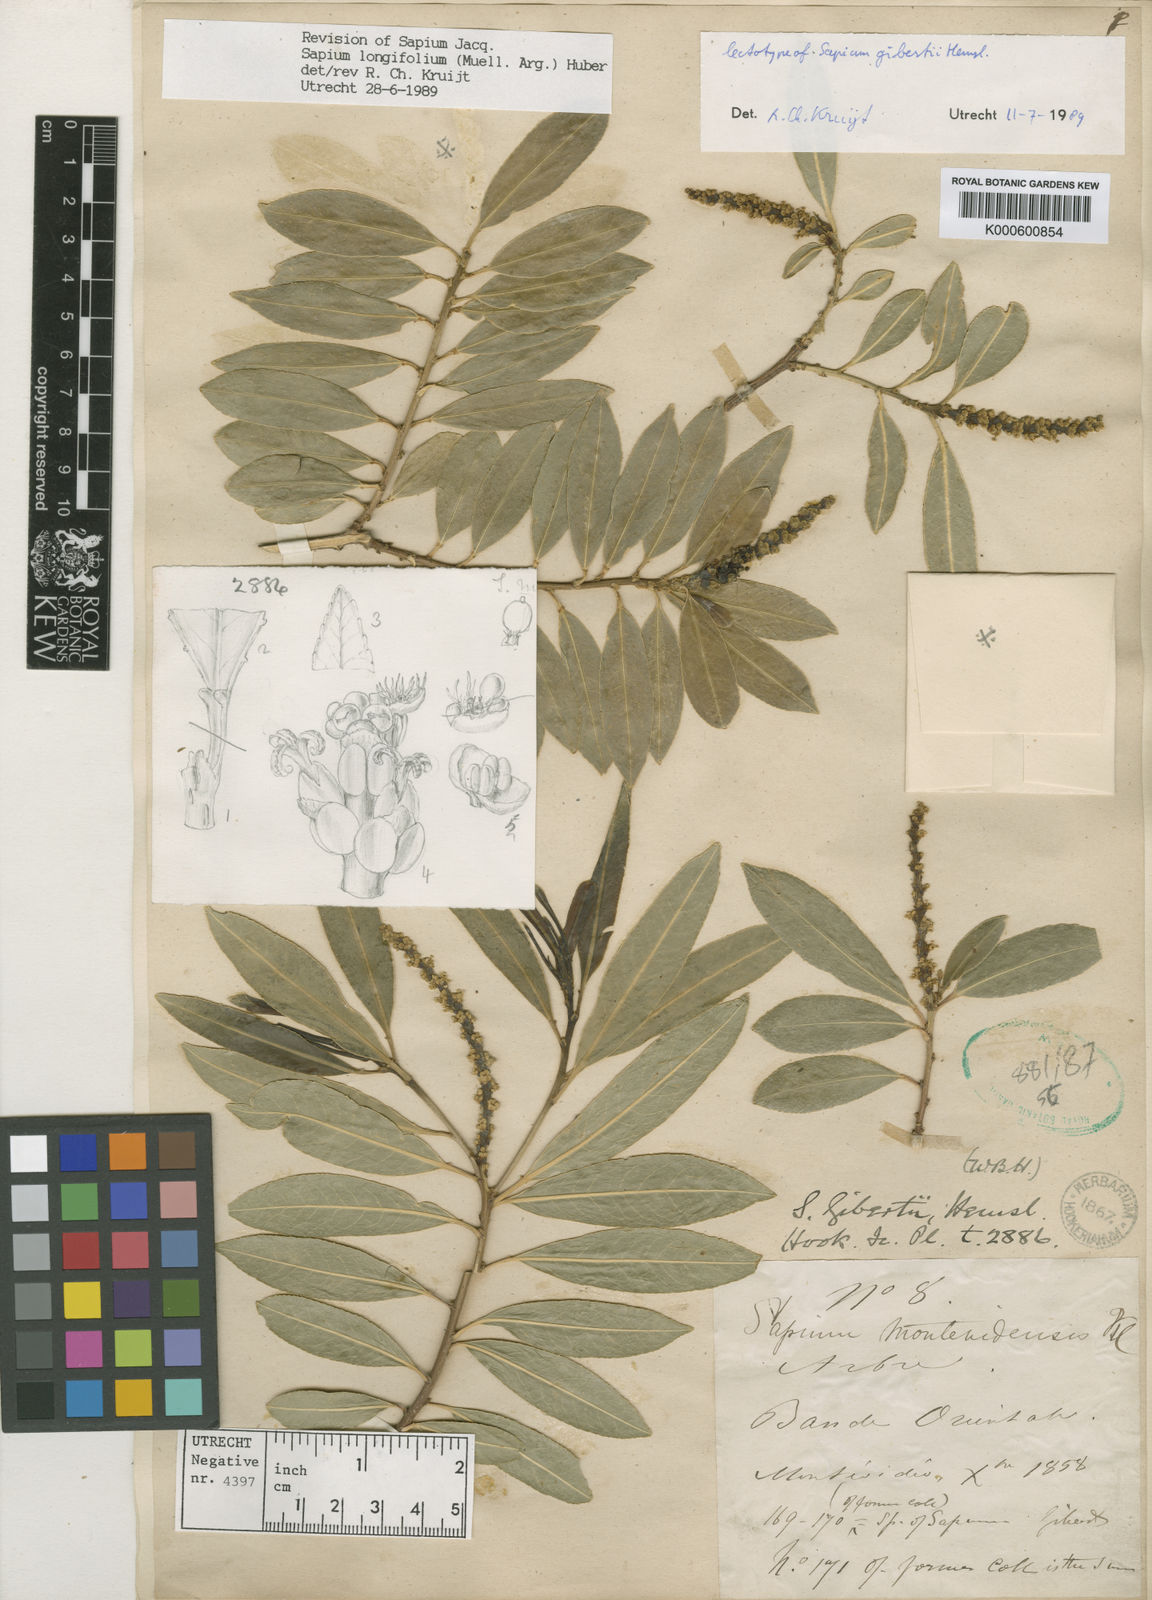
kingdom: Plantae
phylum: Tracheophyta
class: Magnoliopsida
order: Malpighiales
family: Euphorbiaceae
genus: Sapium
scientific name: Sapium haematospermum
